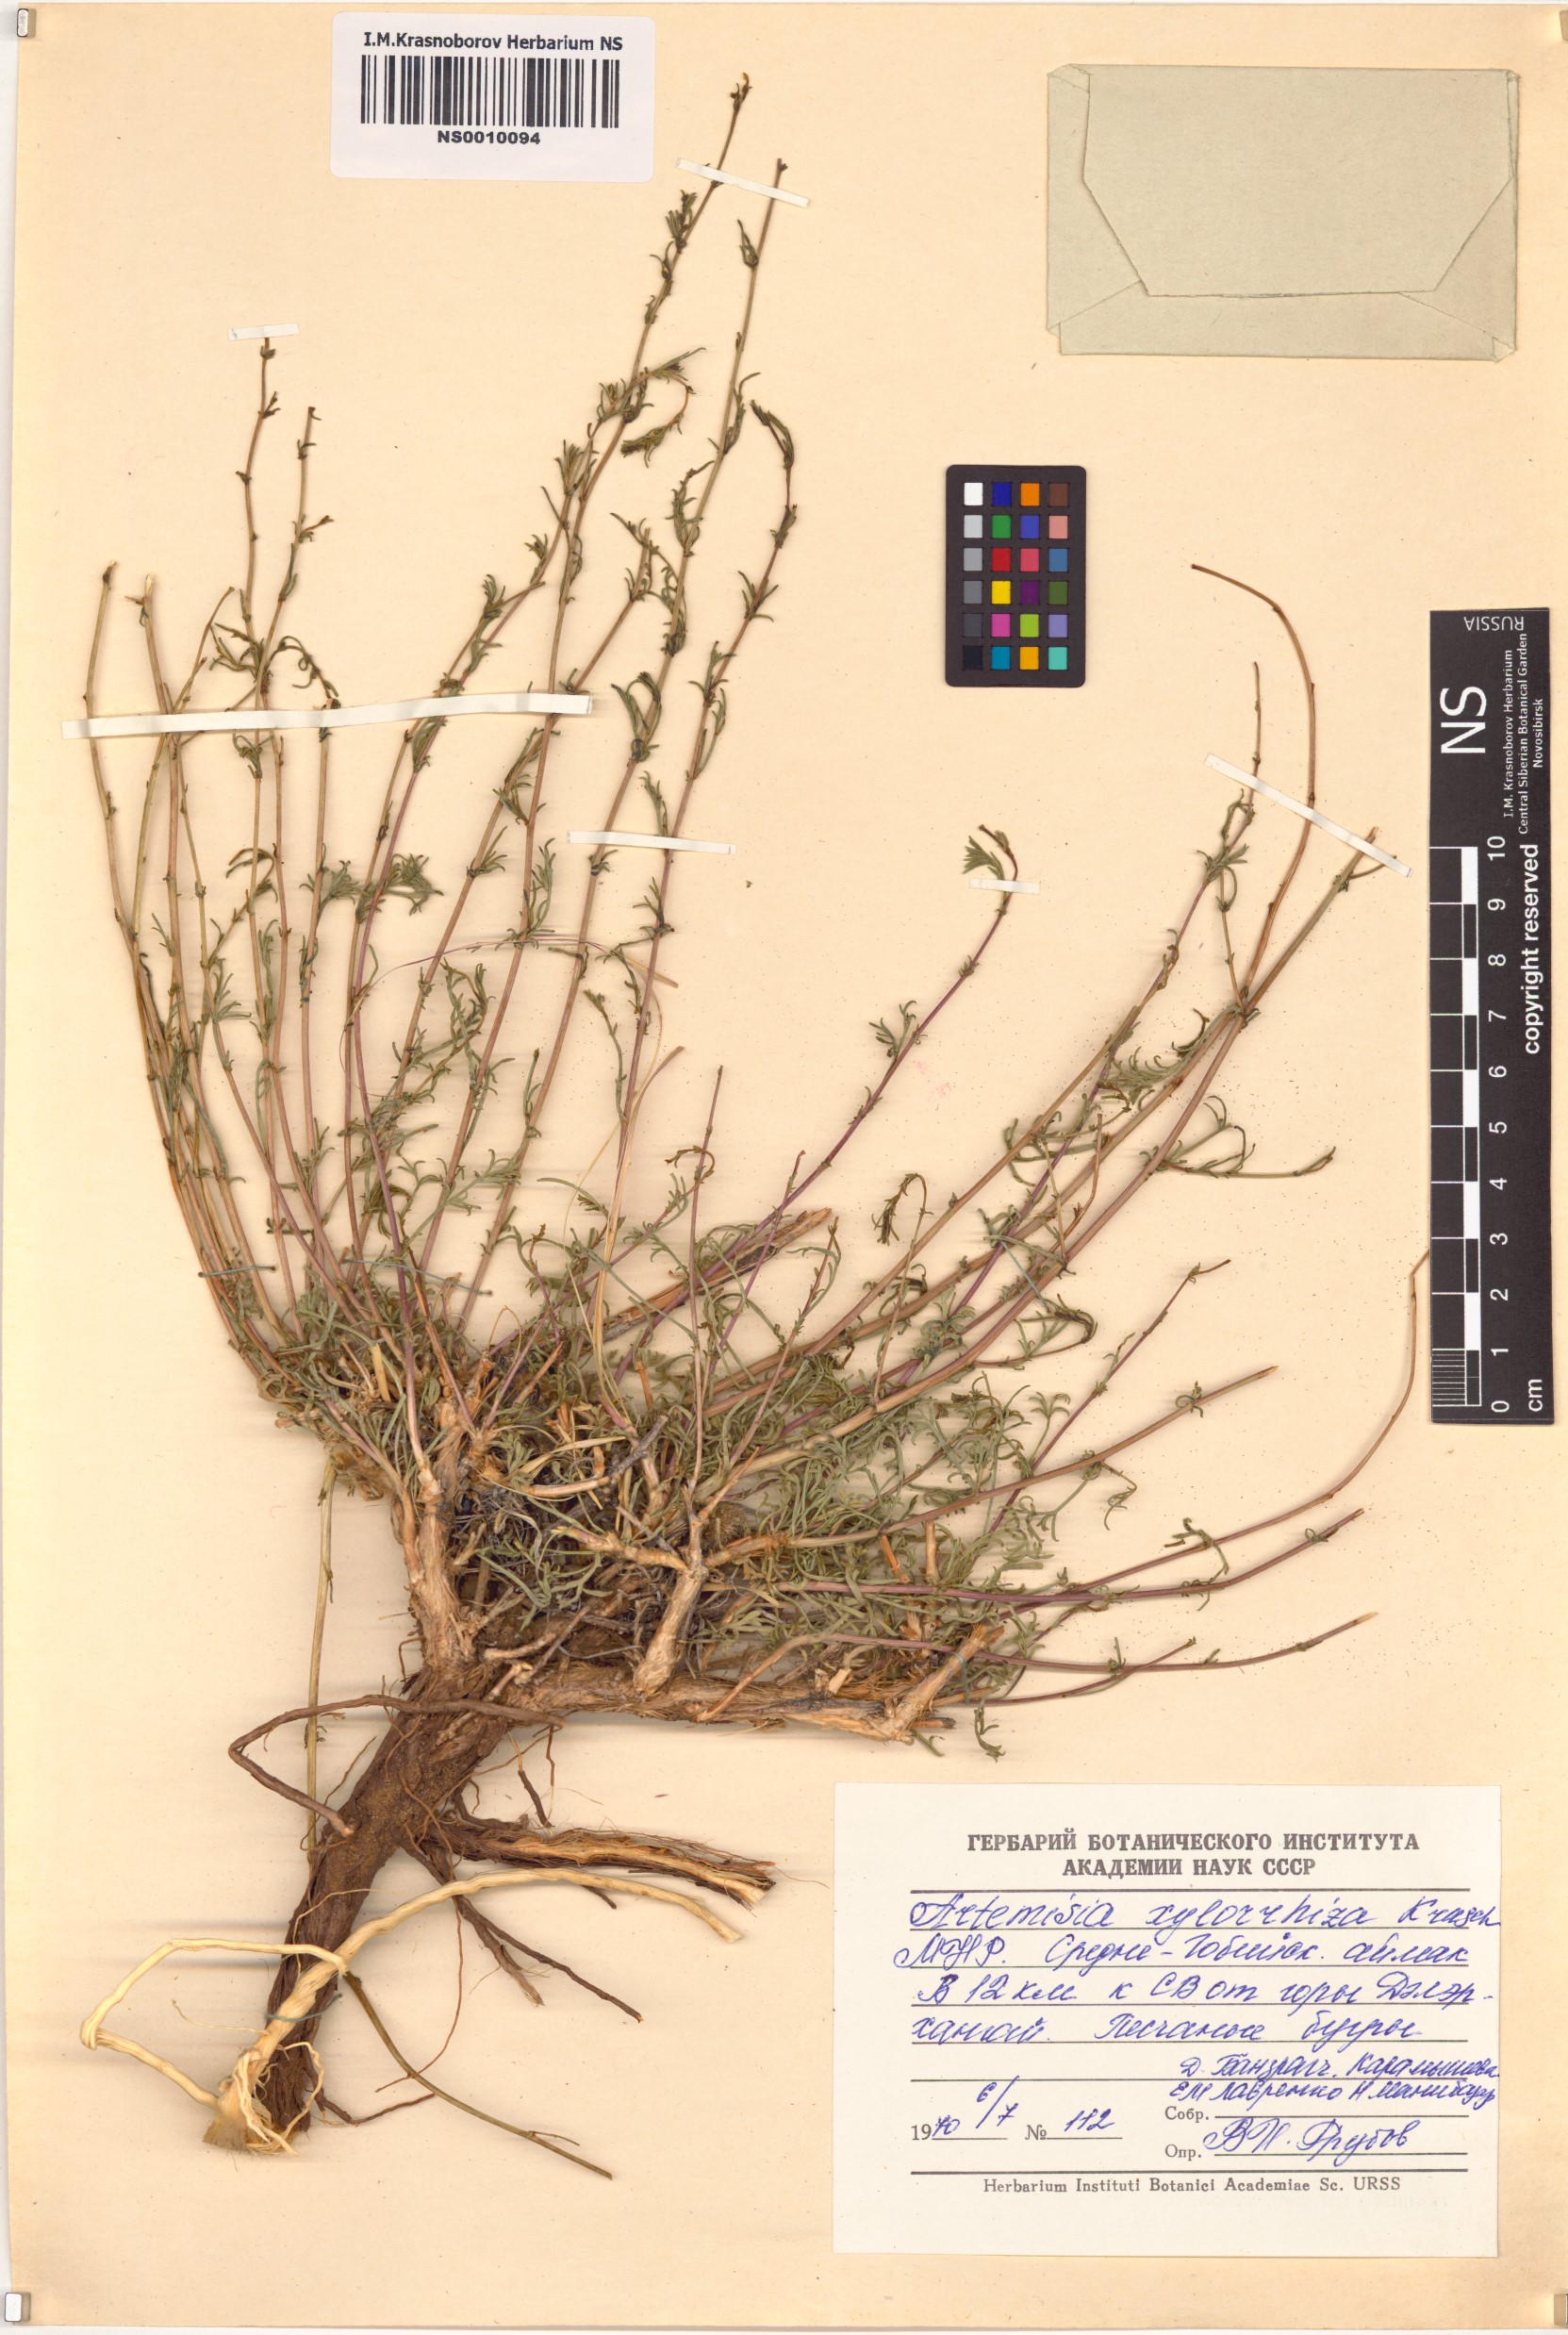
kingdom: Plantae
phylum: Tracheophyta
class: Magnoliopsida
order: Asterales
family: Asteraceae
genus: Artemisia
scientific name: Artemisia klementzae
